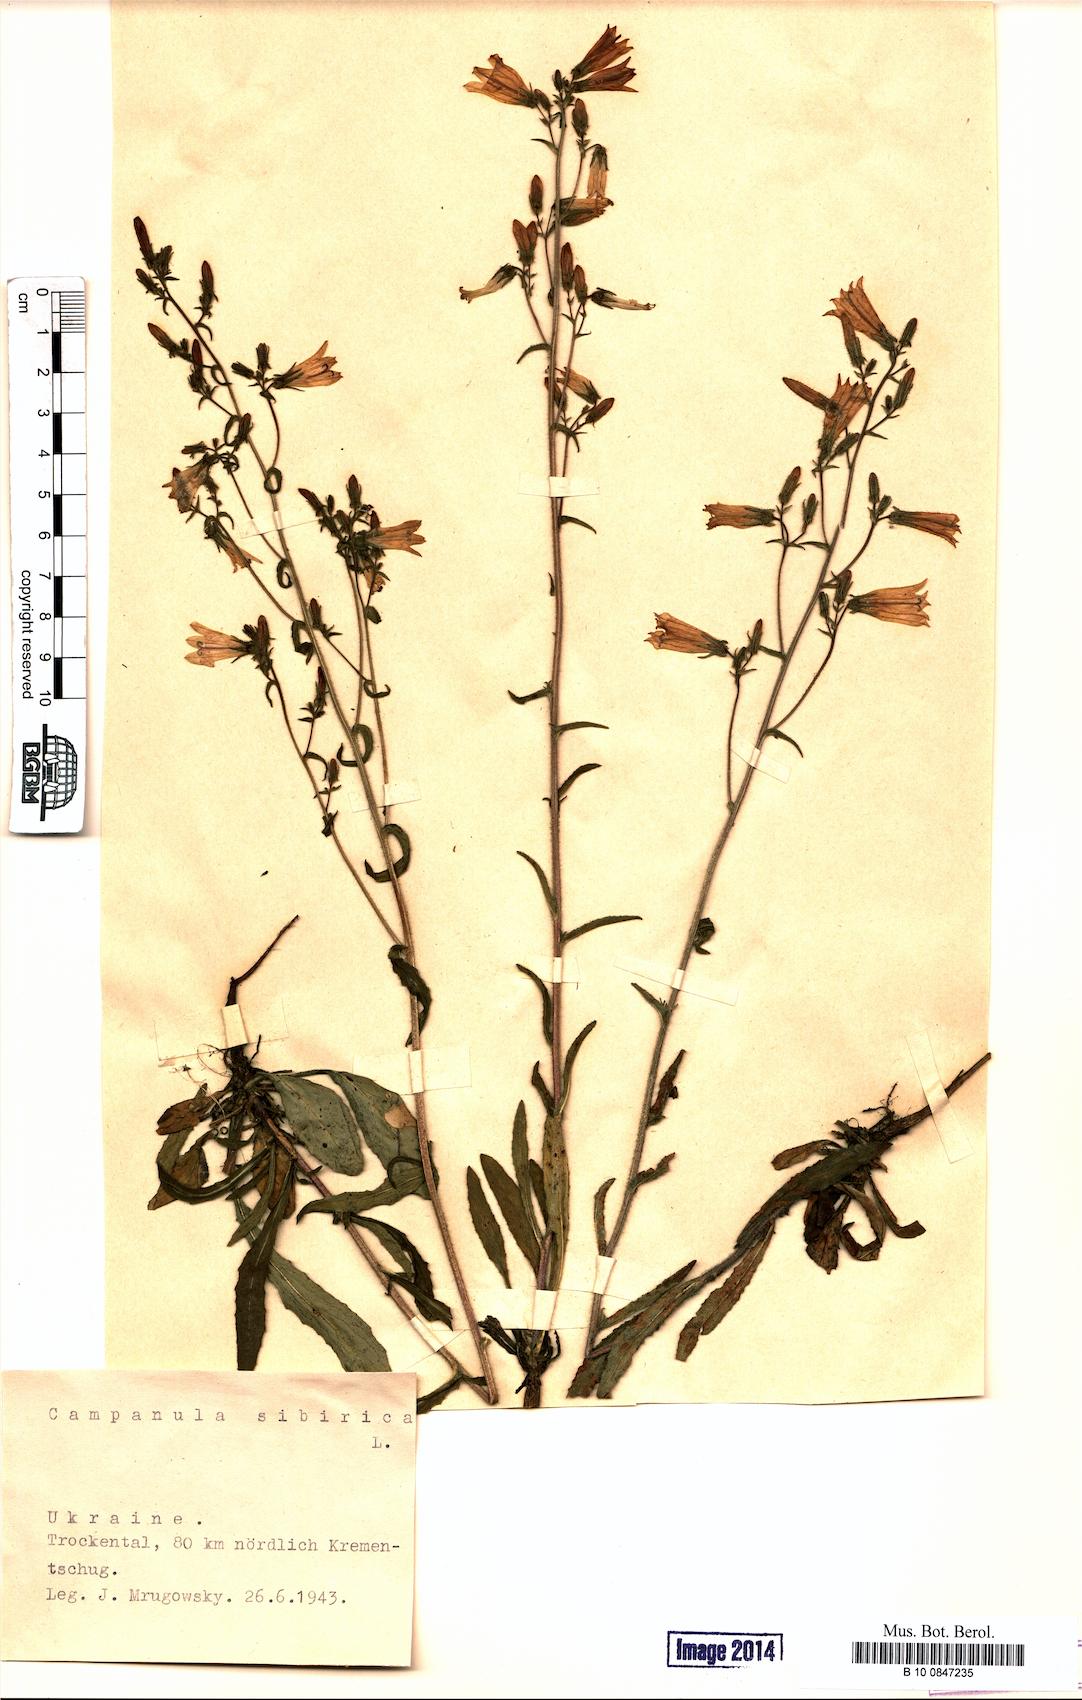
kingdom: Plantae
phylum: Tracheophyta
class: Magnoliopsida
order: Asterales
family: Campanulaceae
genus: Campanula
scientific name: Campanula sibirica
